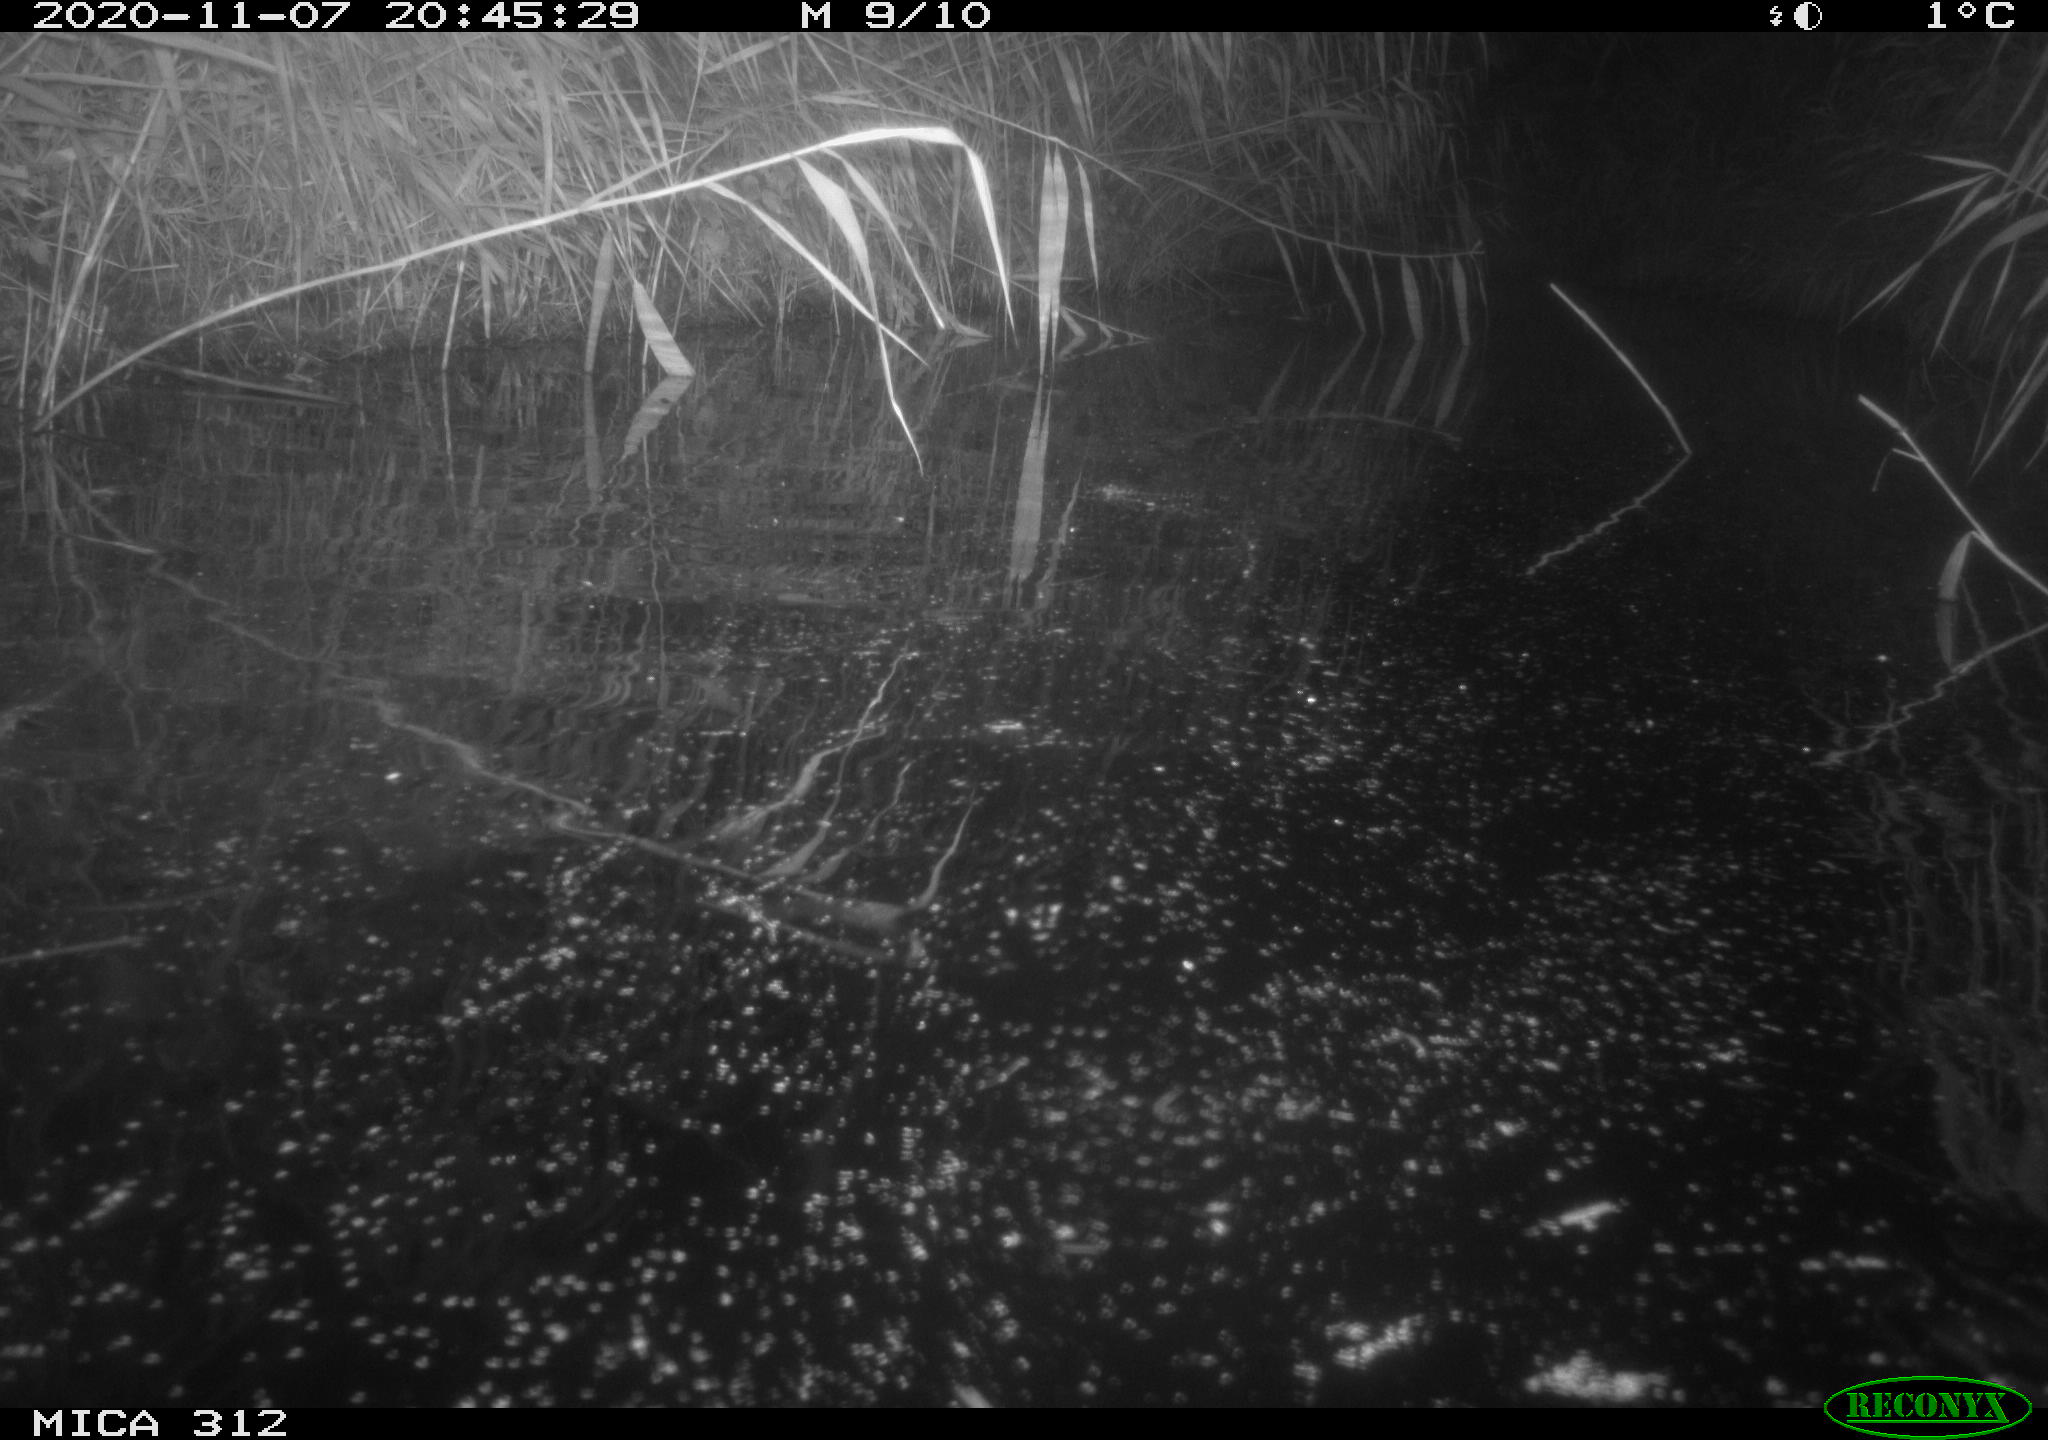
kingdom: Animalia
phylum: Chordata
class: Mammalia
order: Rodentia
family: Muridae
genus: Rattus
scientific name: Rattus norvegicus
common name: Brown rat
